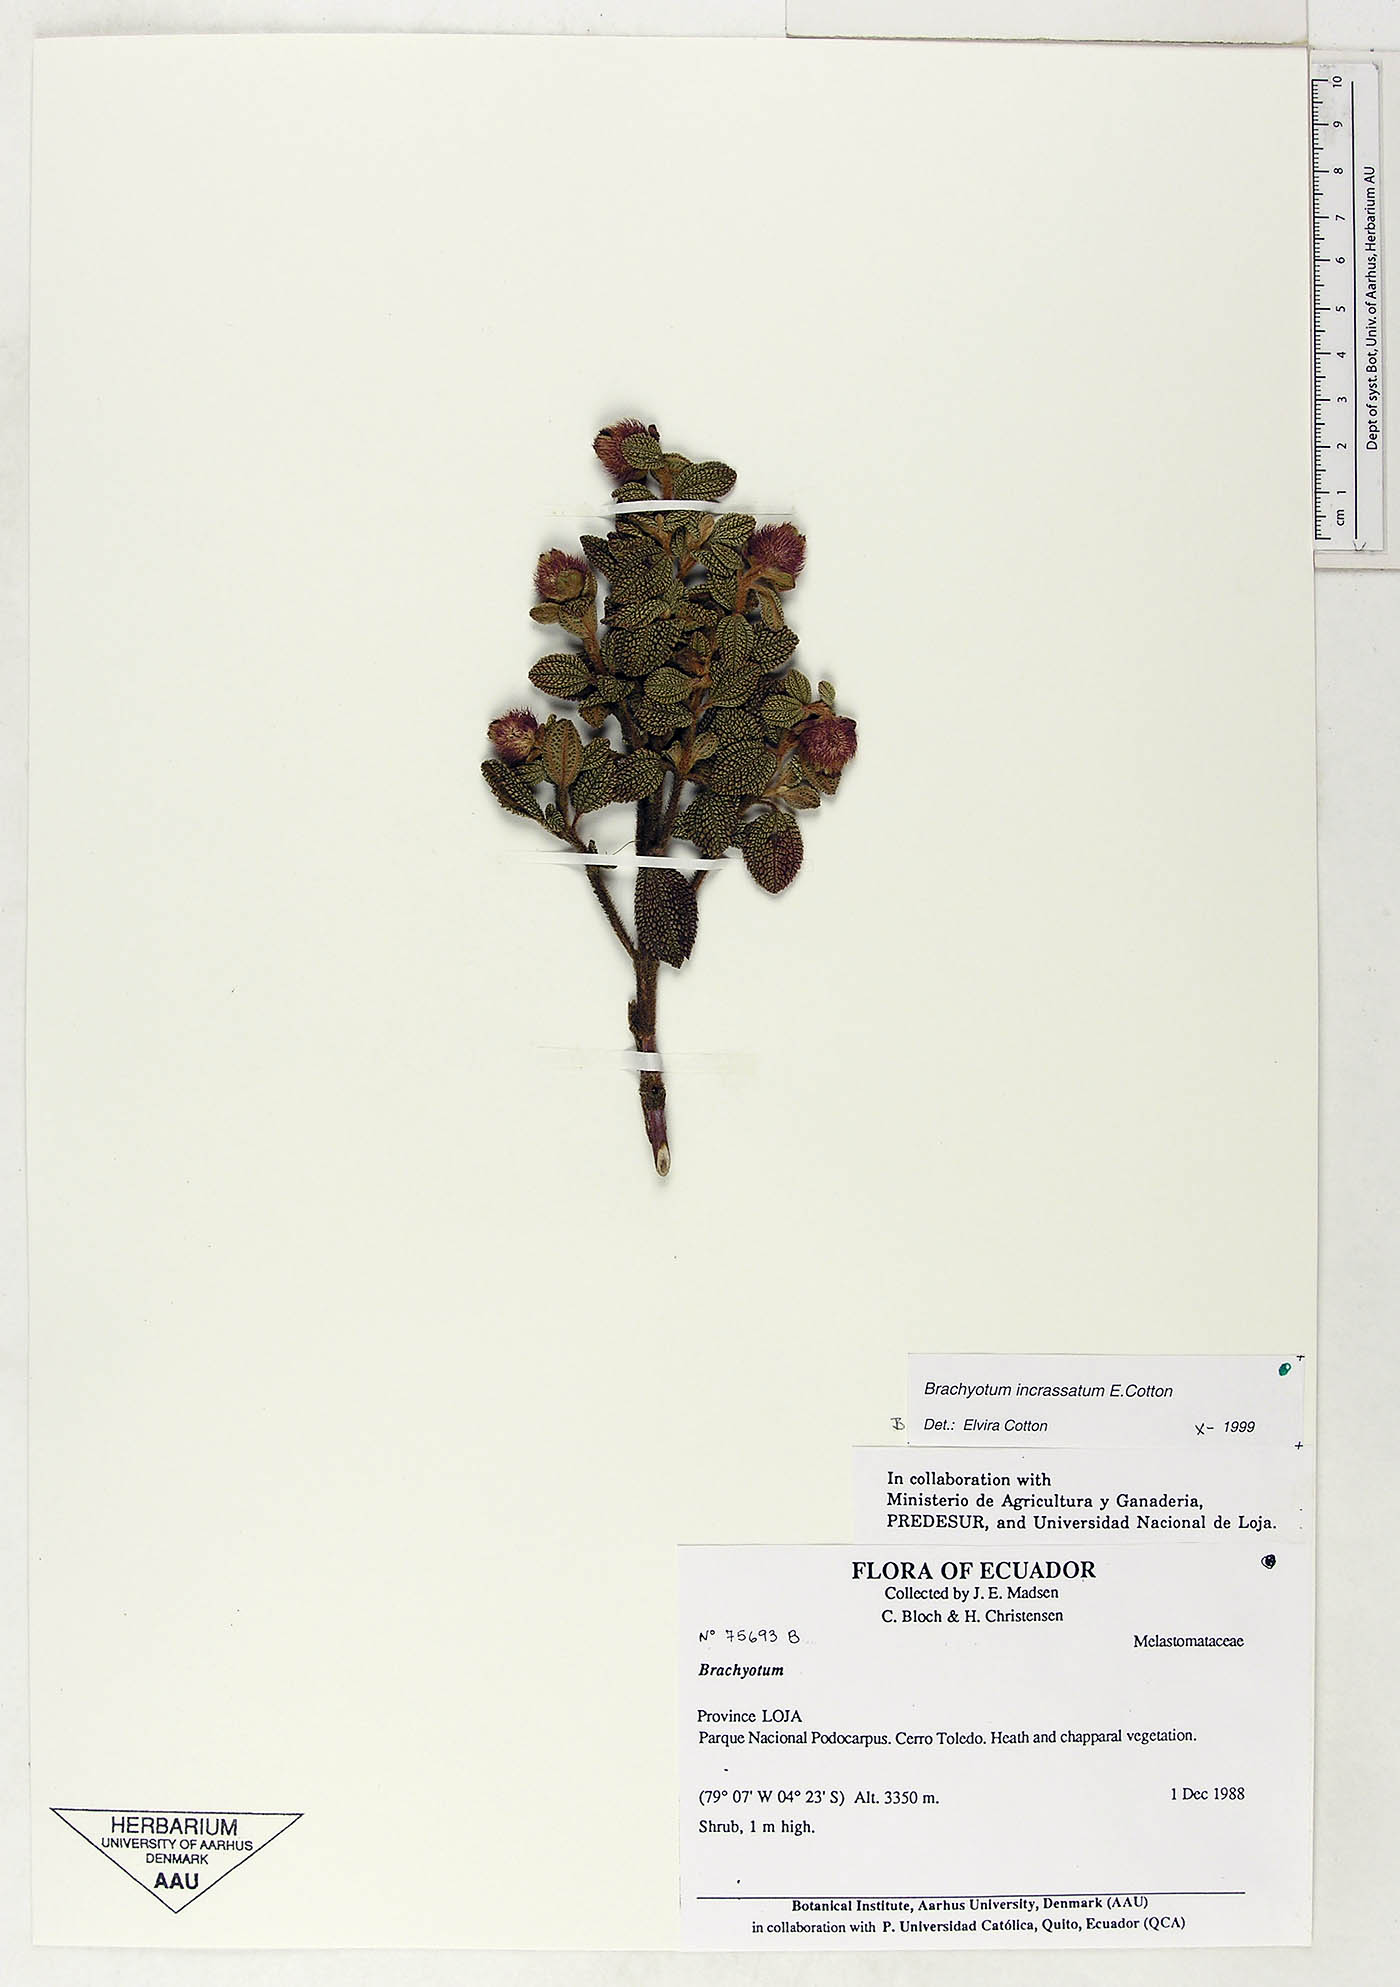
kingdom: Plantae
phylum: Tracheophyta
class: Magnoliopsida
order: Myrtales
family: Melastomataceae
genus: Brachyotum
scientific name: Brachyotum andreanum
